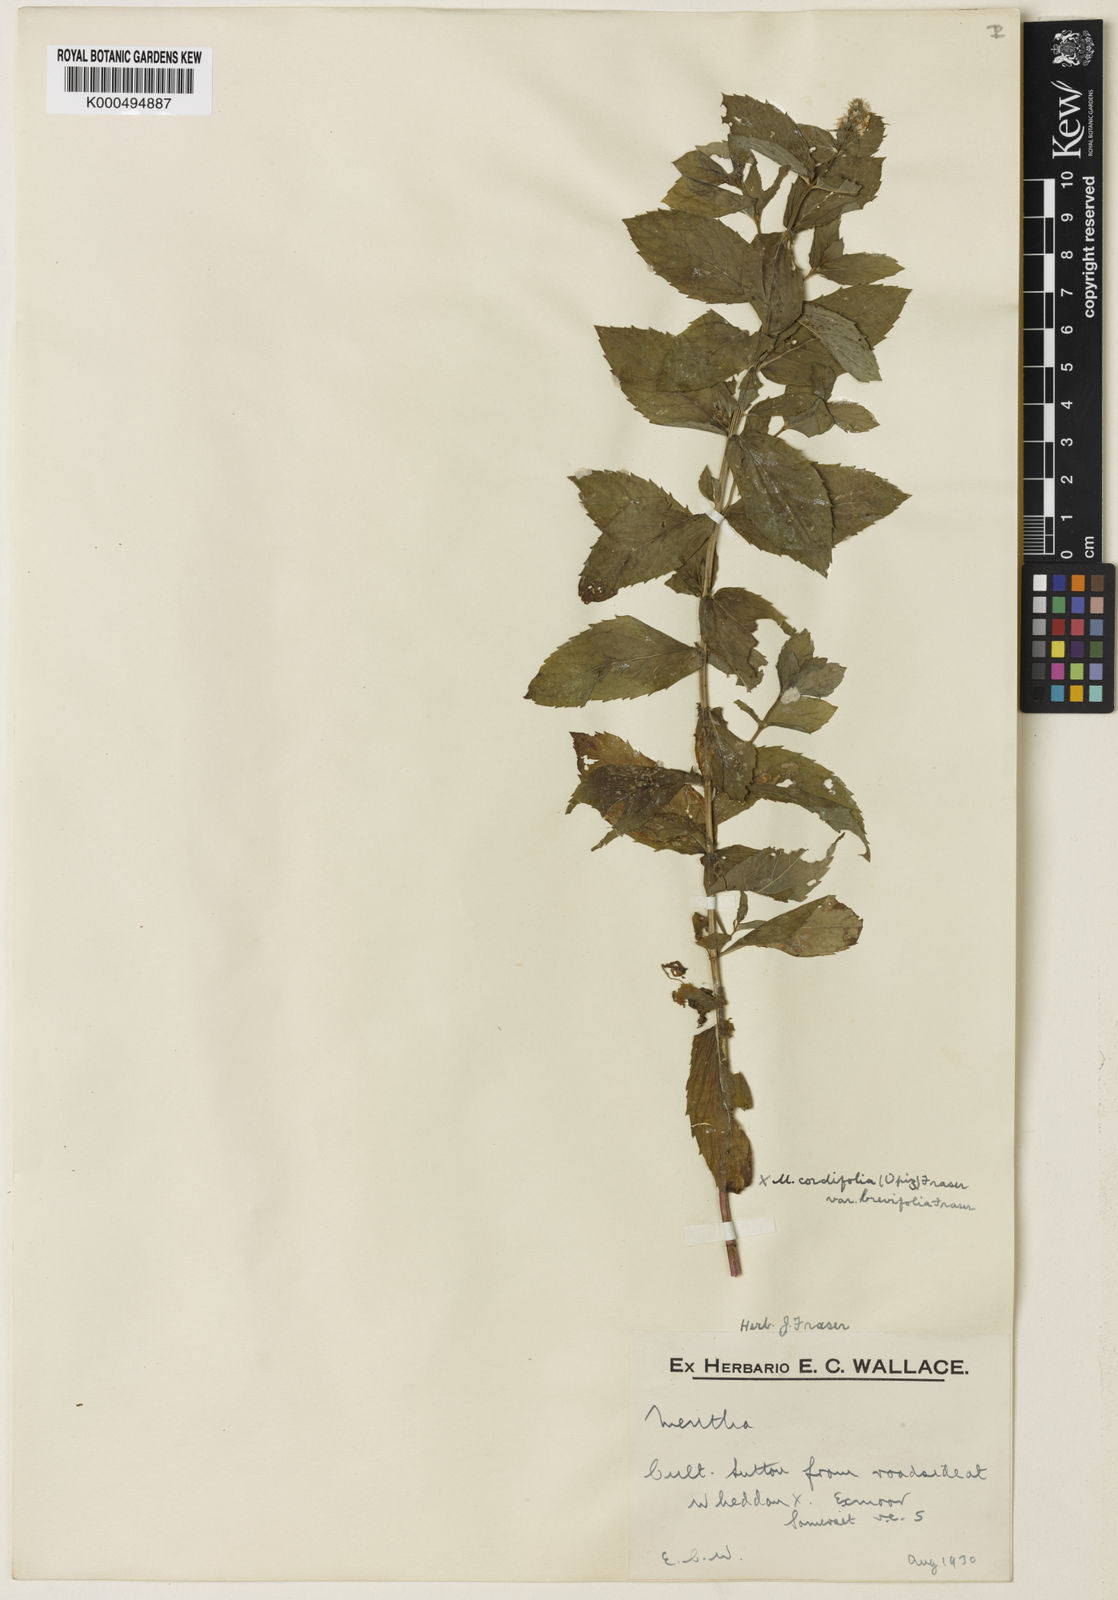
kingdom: Plantae
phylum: Tracheophyta
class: Magnoliopsida
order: Lamiales
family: Lamiaceae
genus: Mentha
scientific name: Mentha villosa
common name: Apple mint
